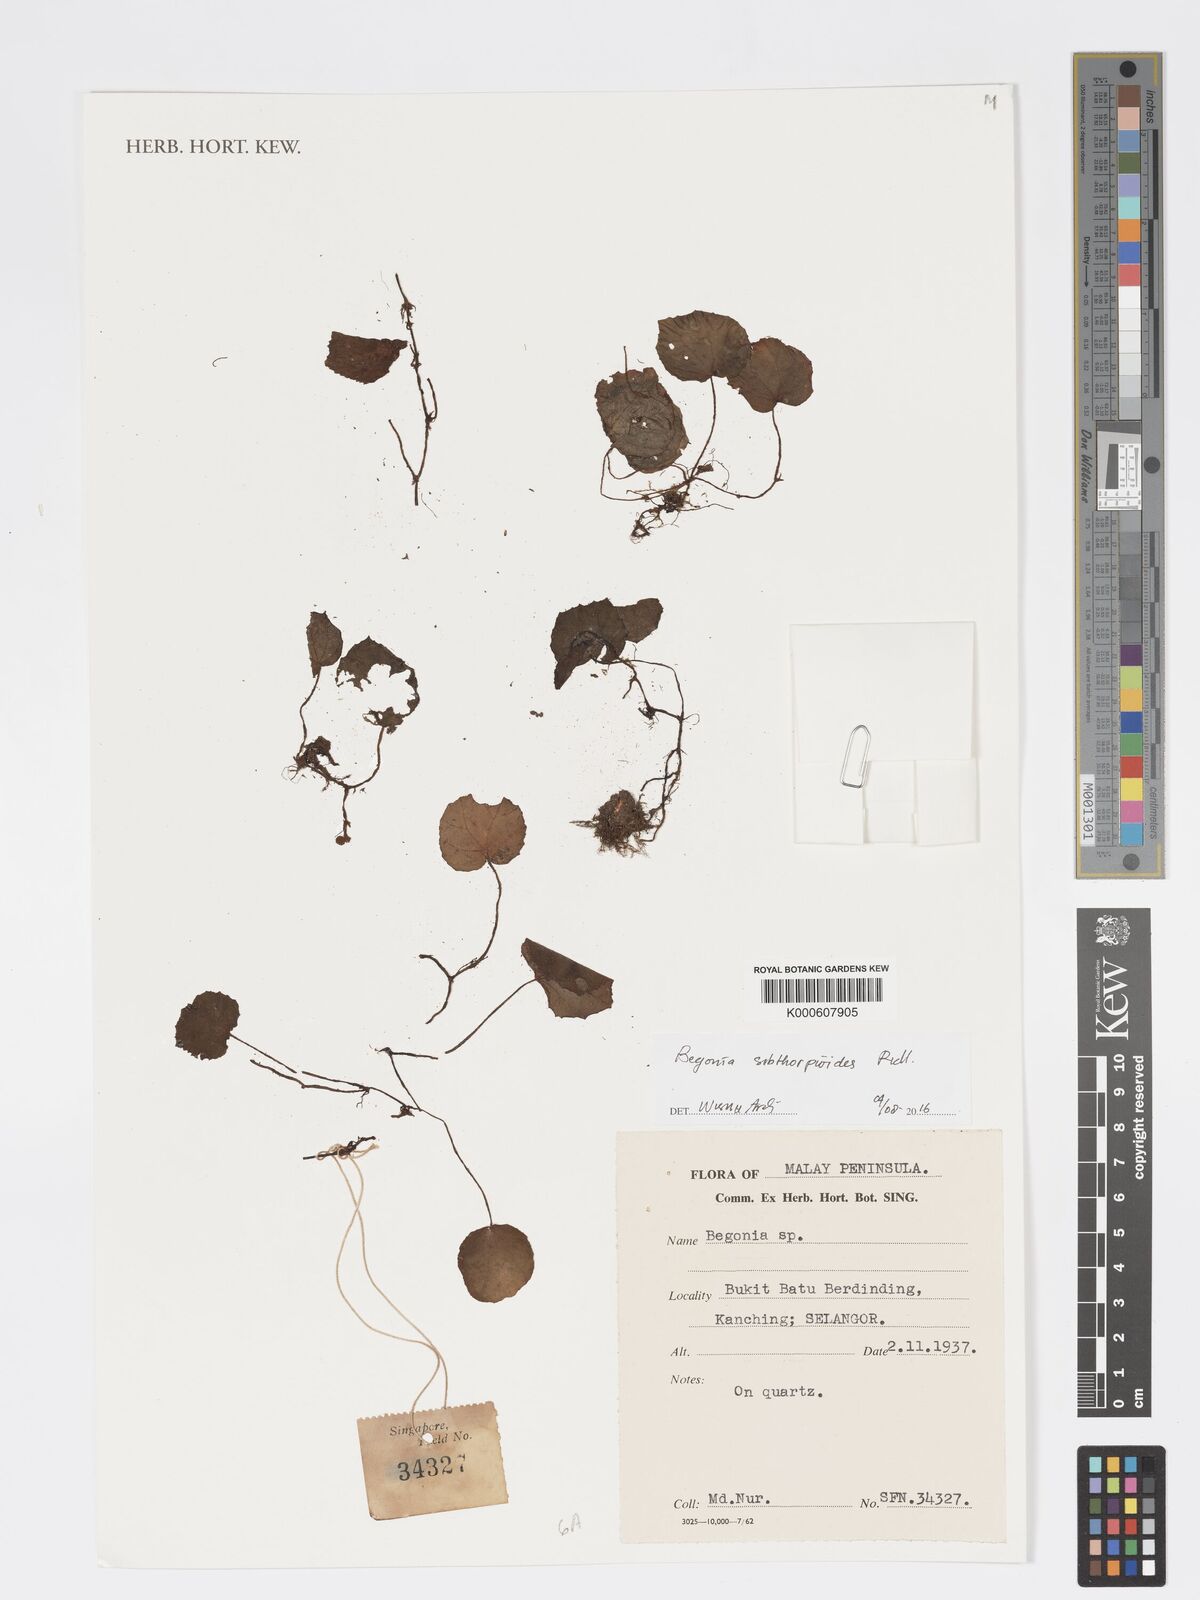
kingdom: Plantae
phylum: Tracheophyta
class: Magnoliopsida
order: Cucurbitales
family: Begoniaceae
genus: Begonia
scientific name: Begonia sibthorpioides
